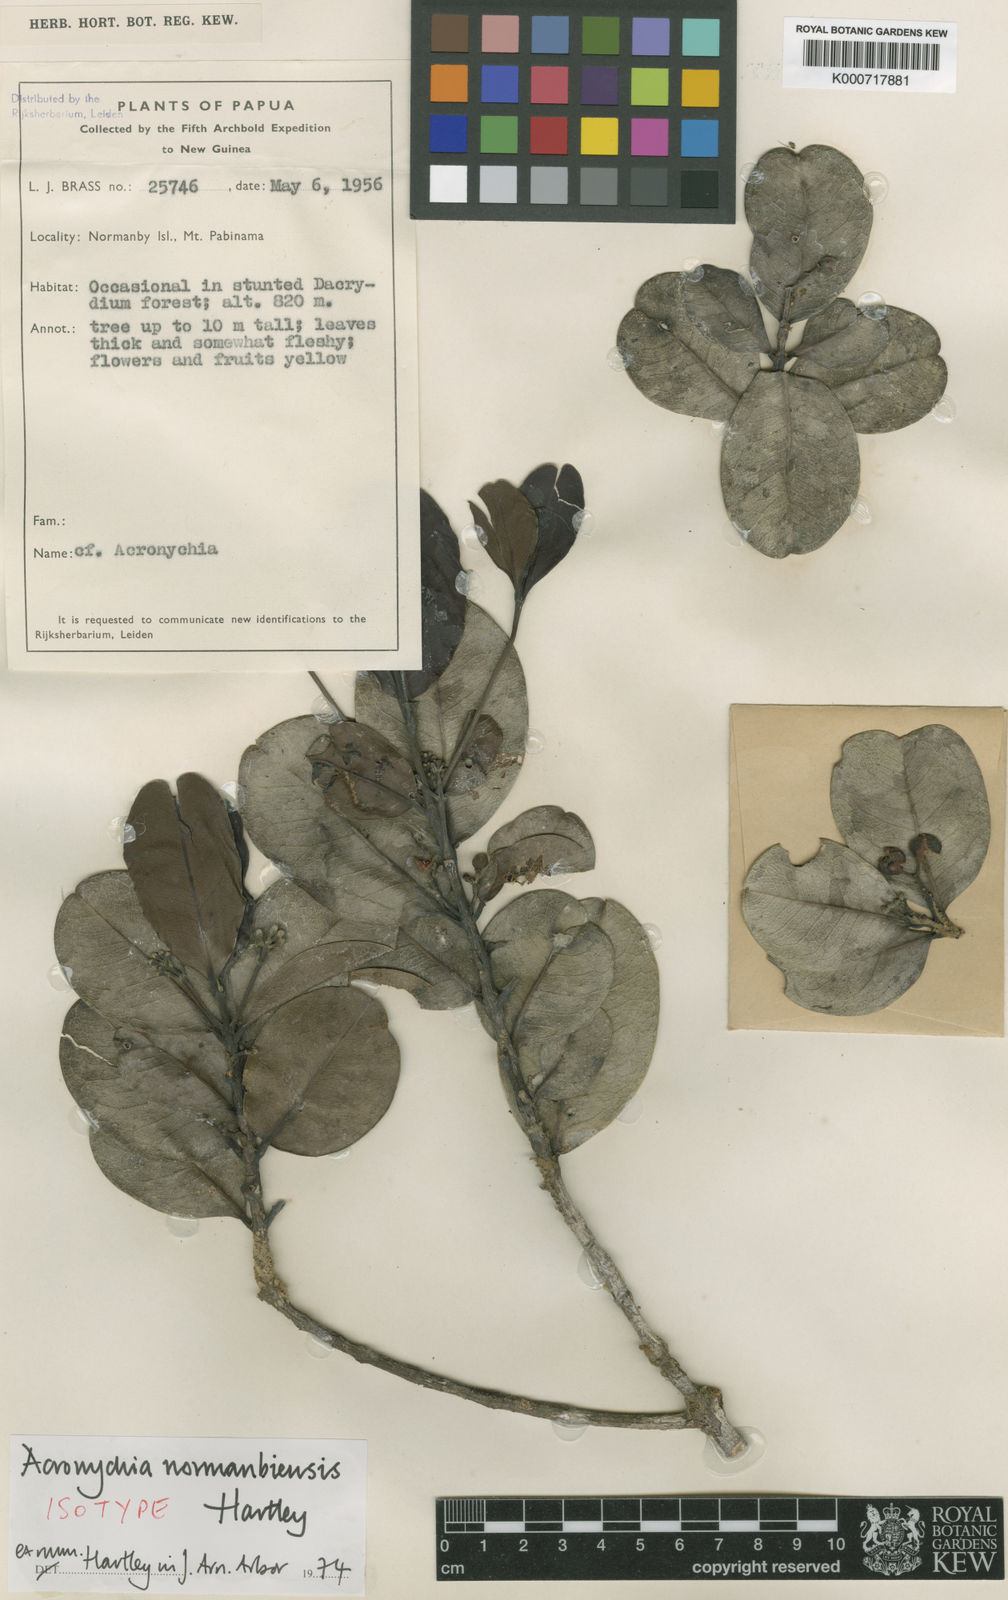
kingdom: Plantae
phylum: Tracheophyta
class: Magnoliopsida
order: Sapindales
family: Rutaceae
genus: Acronychia
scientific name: Acronychia normanbiensis
